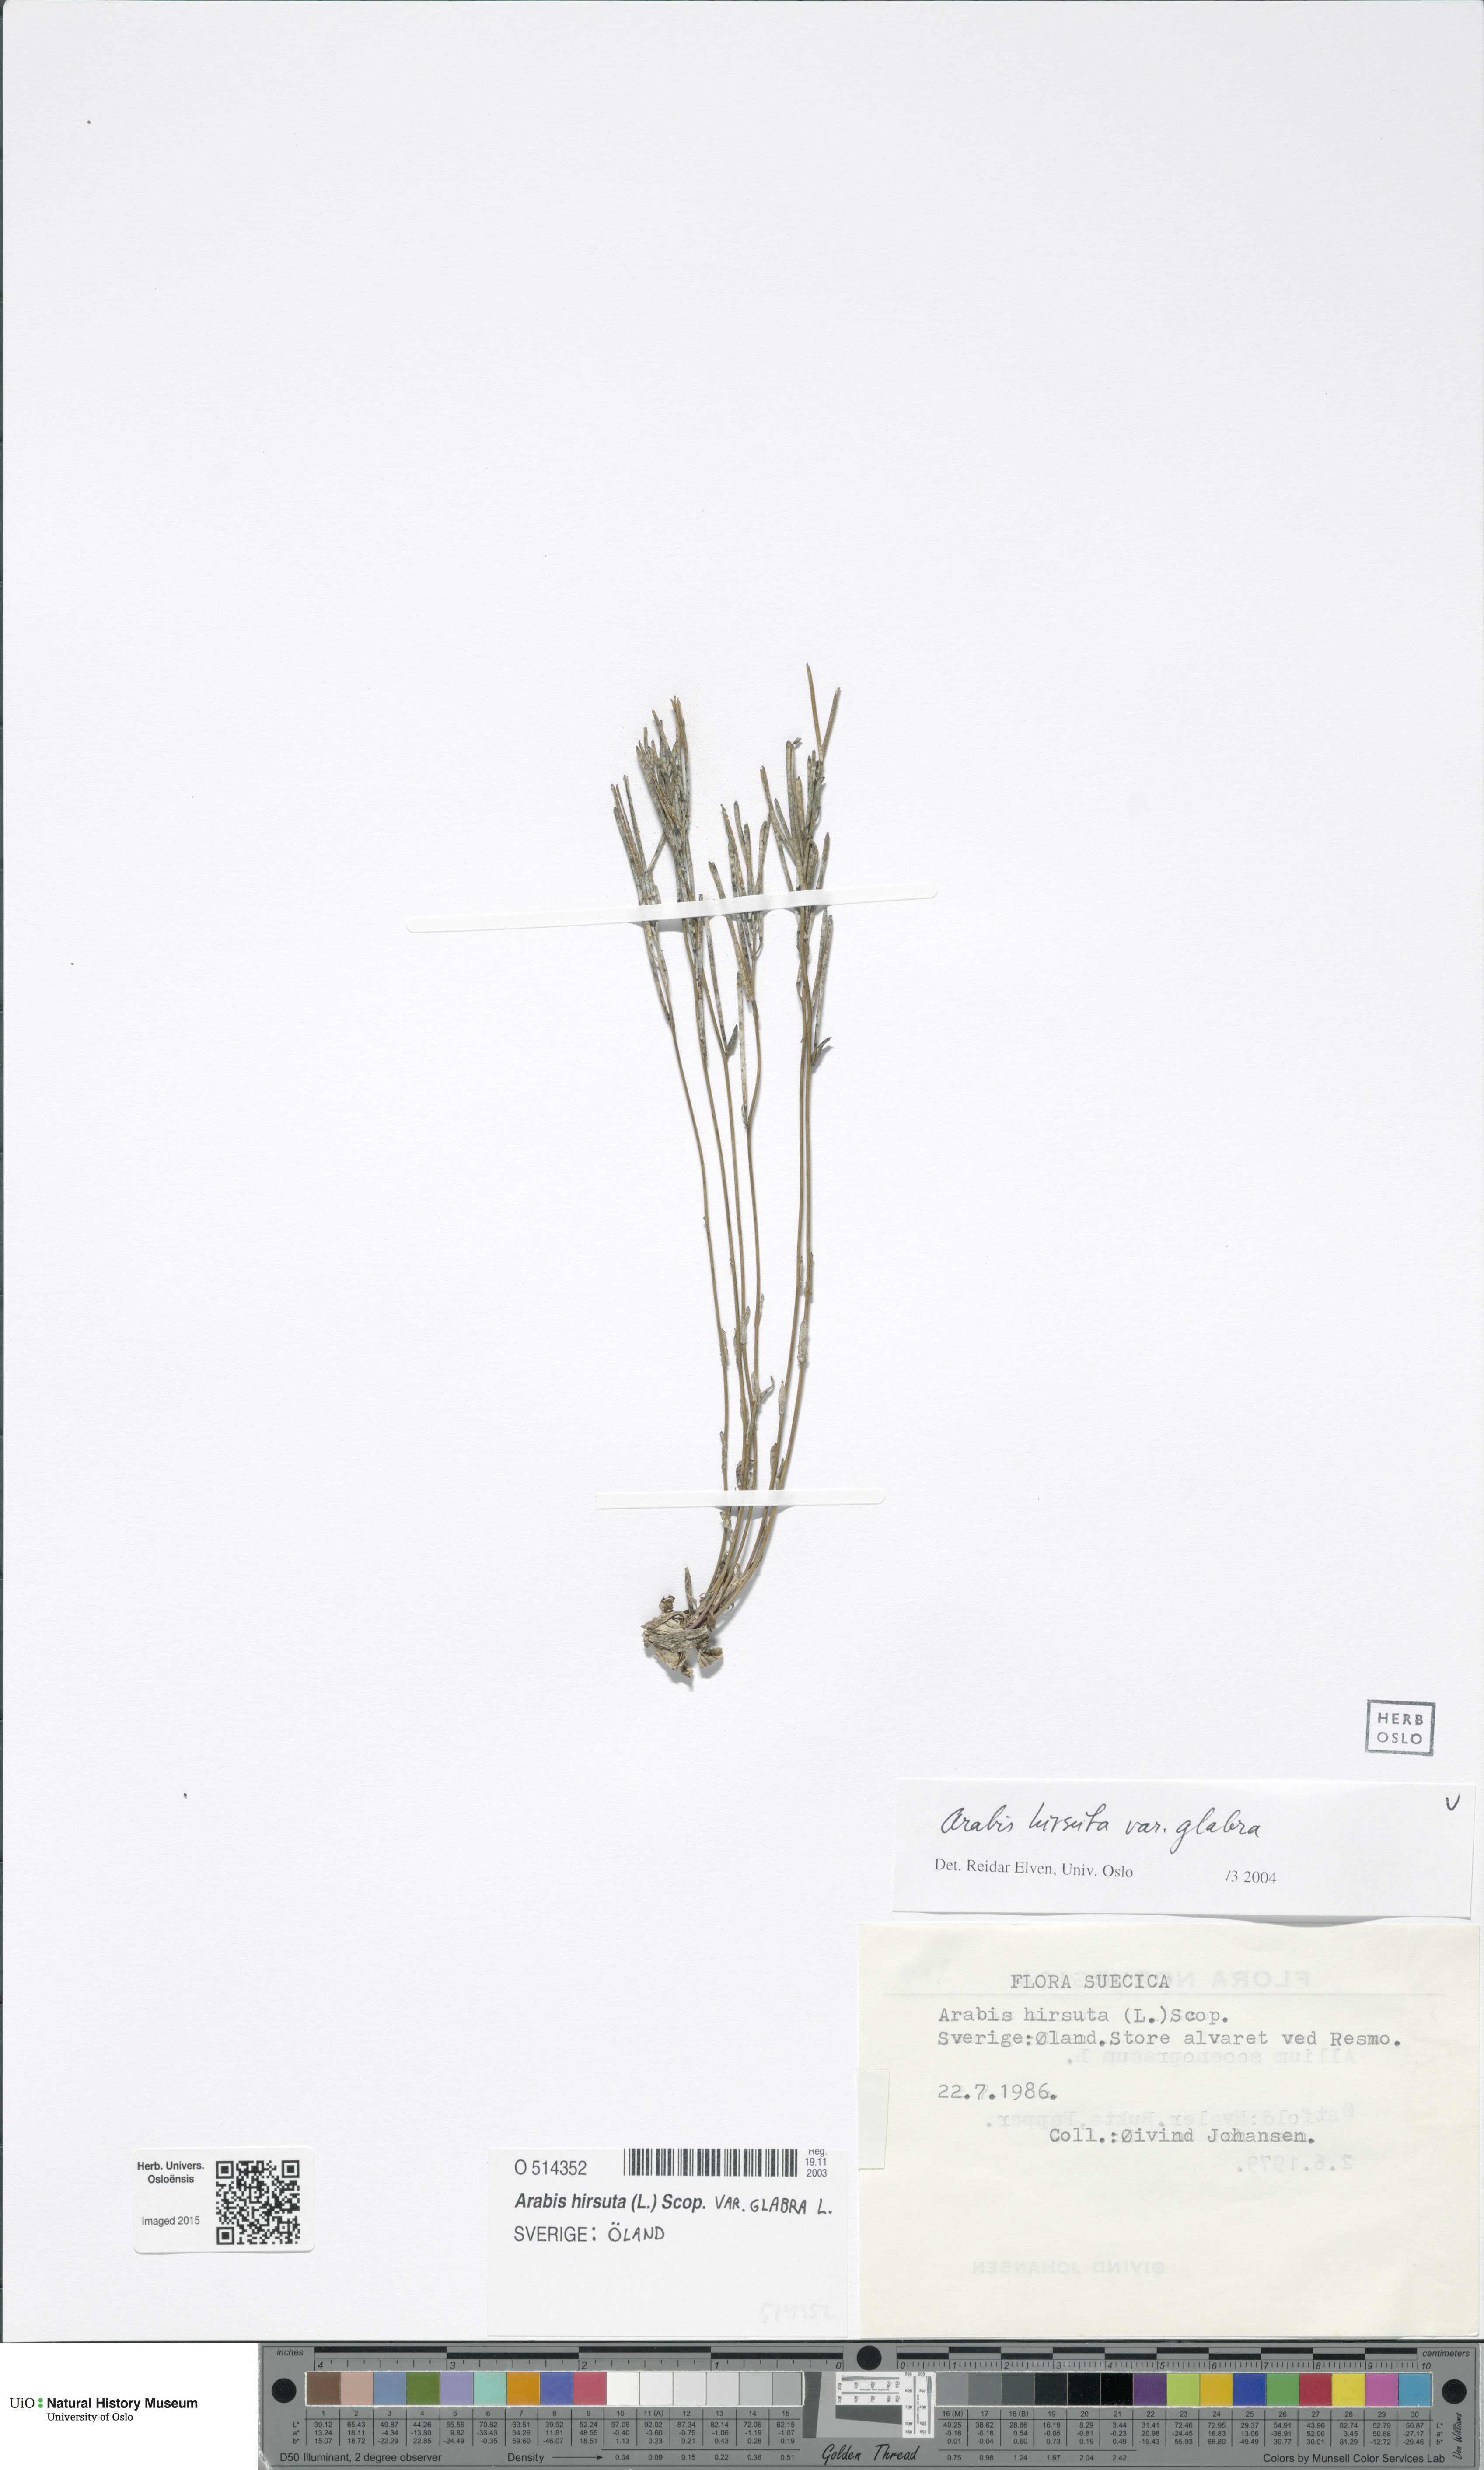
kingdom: Plantae
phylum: Tracheophyta
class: Magnoliopsida
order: Brassicales
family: Brassicaceae
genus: Arabis
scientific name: Arabis hirsuta
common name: Hairy rock-cress
